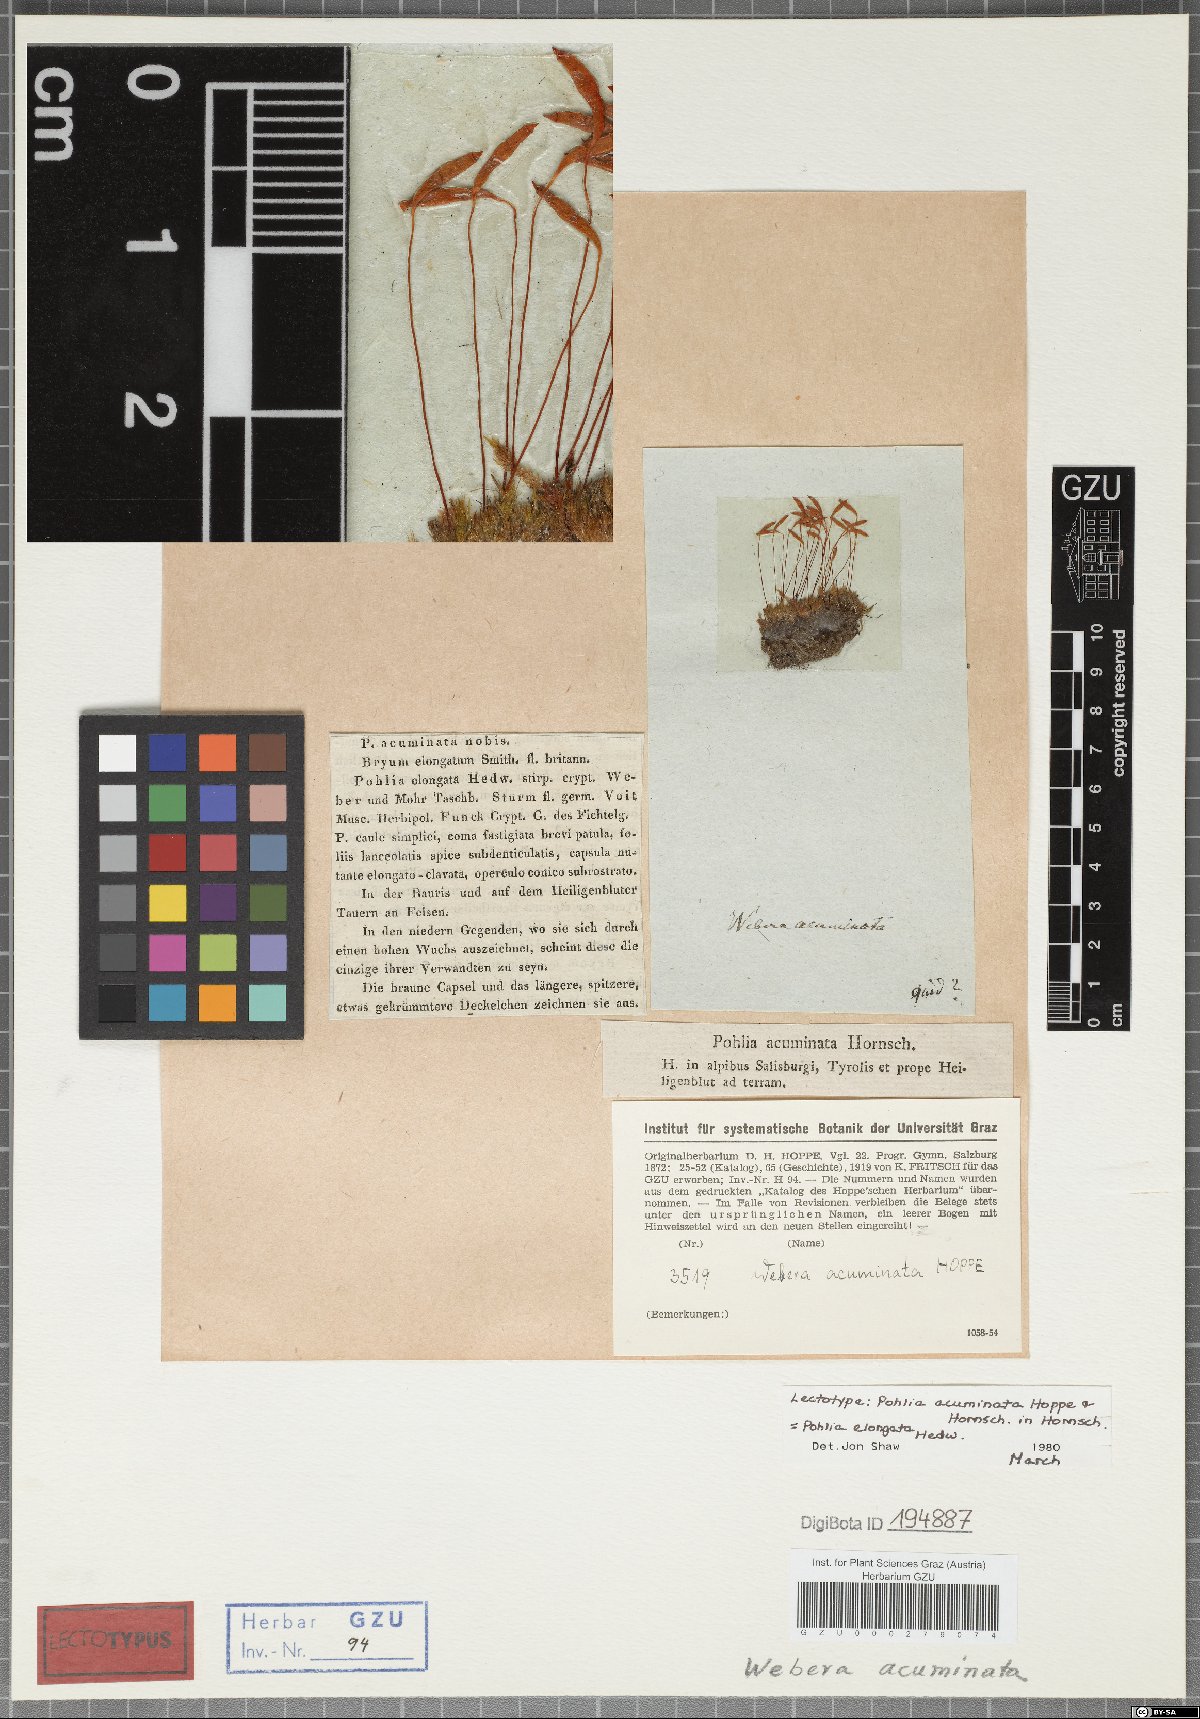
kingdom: Plantae
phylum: Bryophyta
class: Bryopsida
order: Bryales
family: Mniaceae
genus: Pohlia
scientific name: Pohlia elongata
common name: Long-fruited thread-moss
